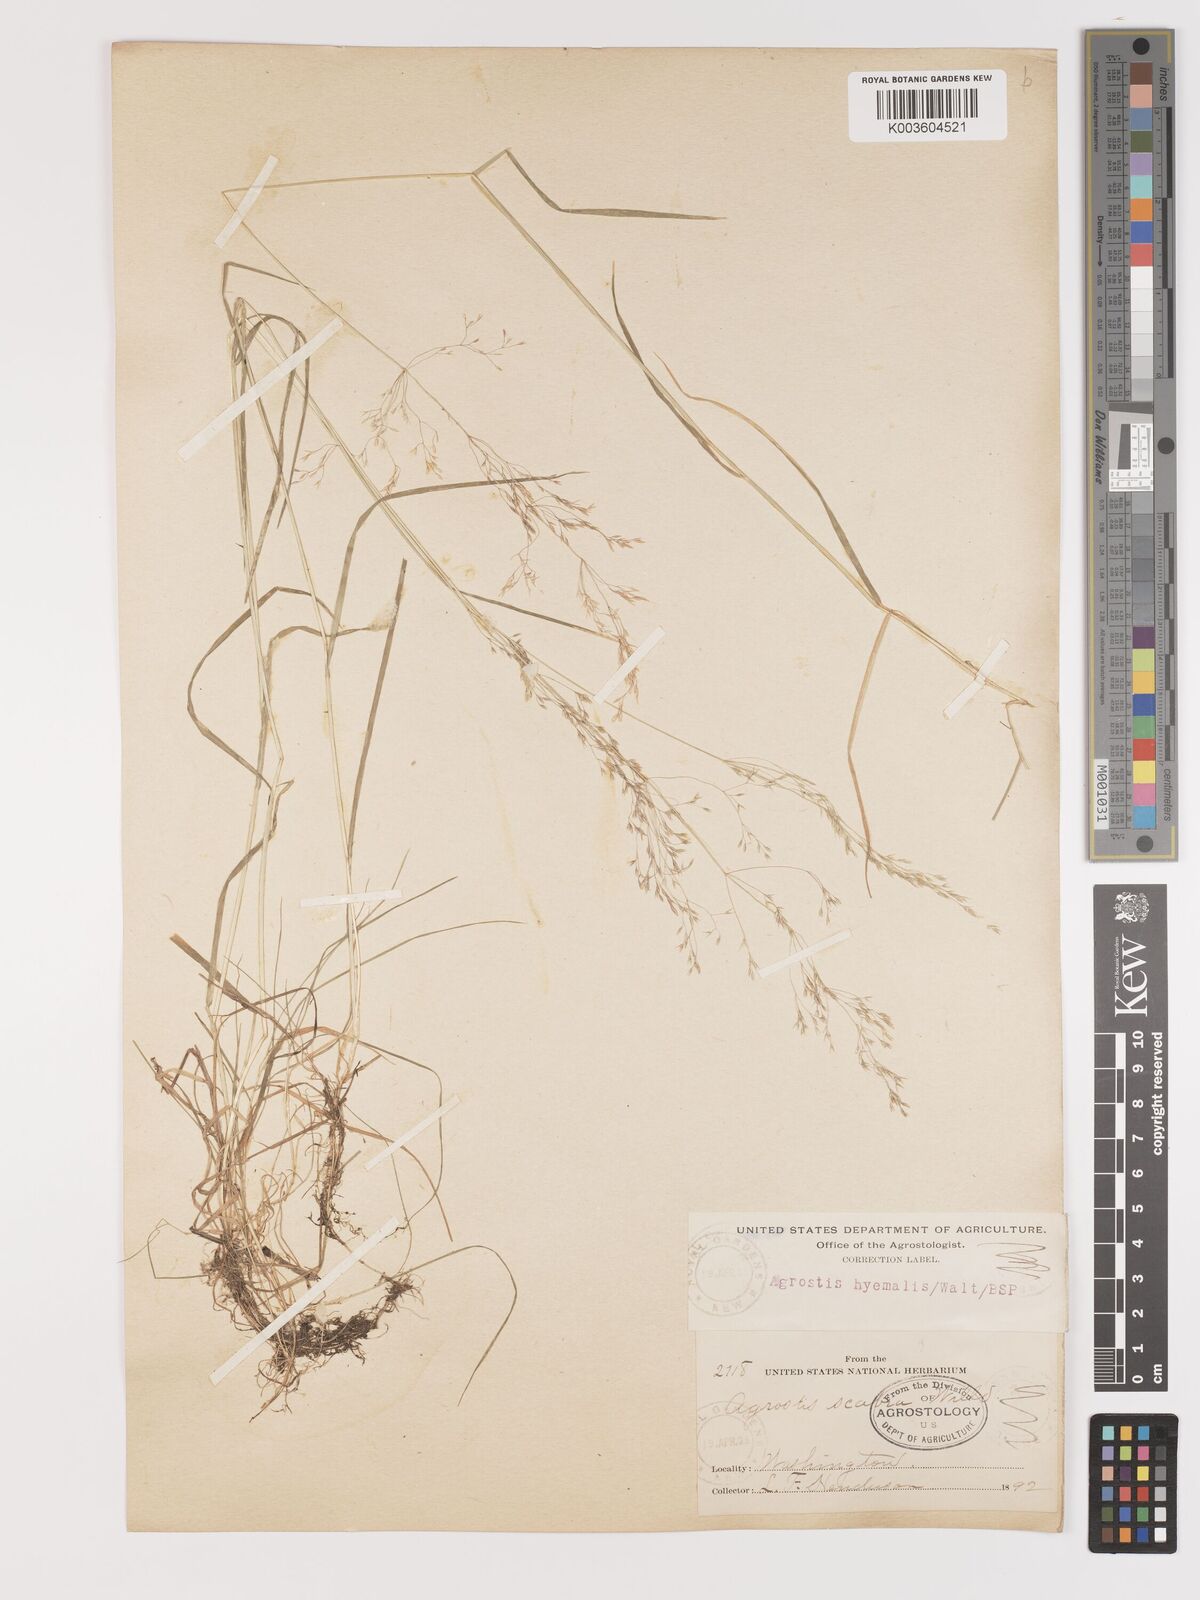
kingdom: Plantae
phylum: Tracheophyta
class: Liliopsida
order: Poales
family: Poaceae
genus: Agrostis
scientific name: Agrostis hyemalis
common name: Small bent
